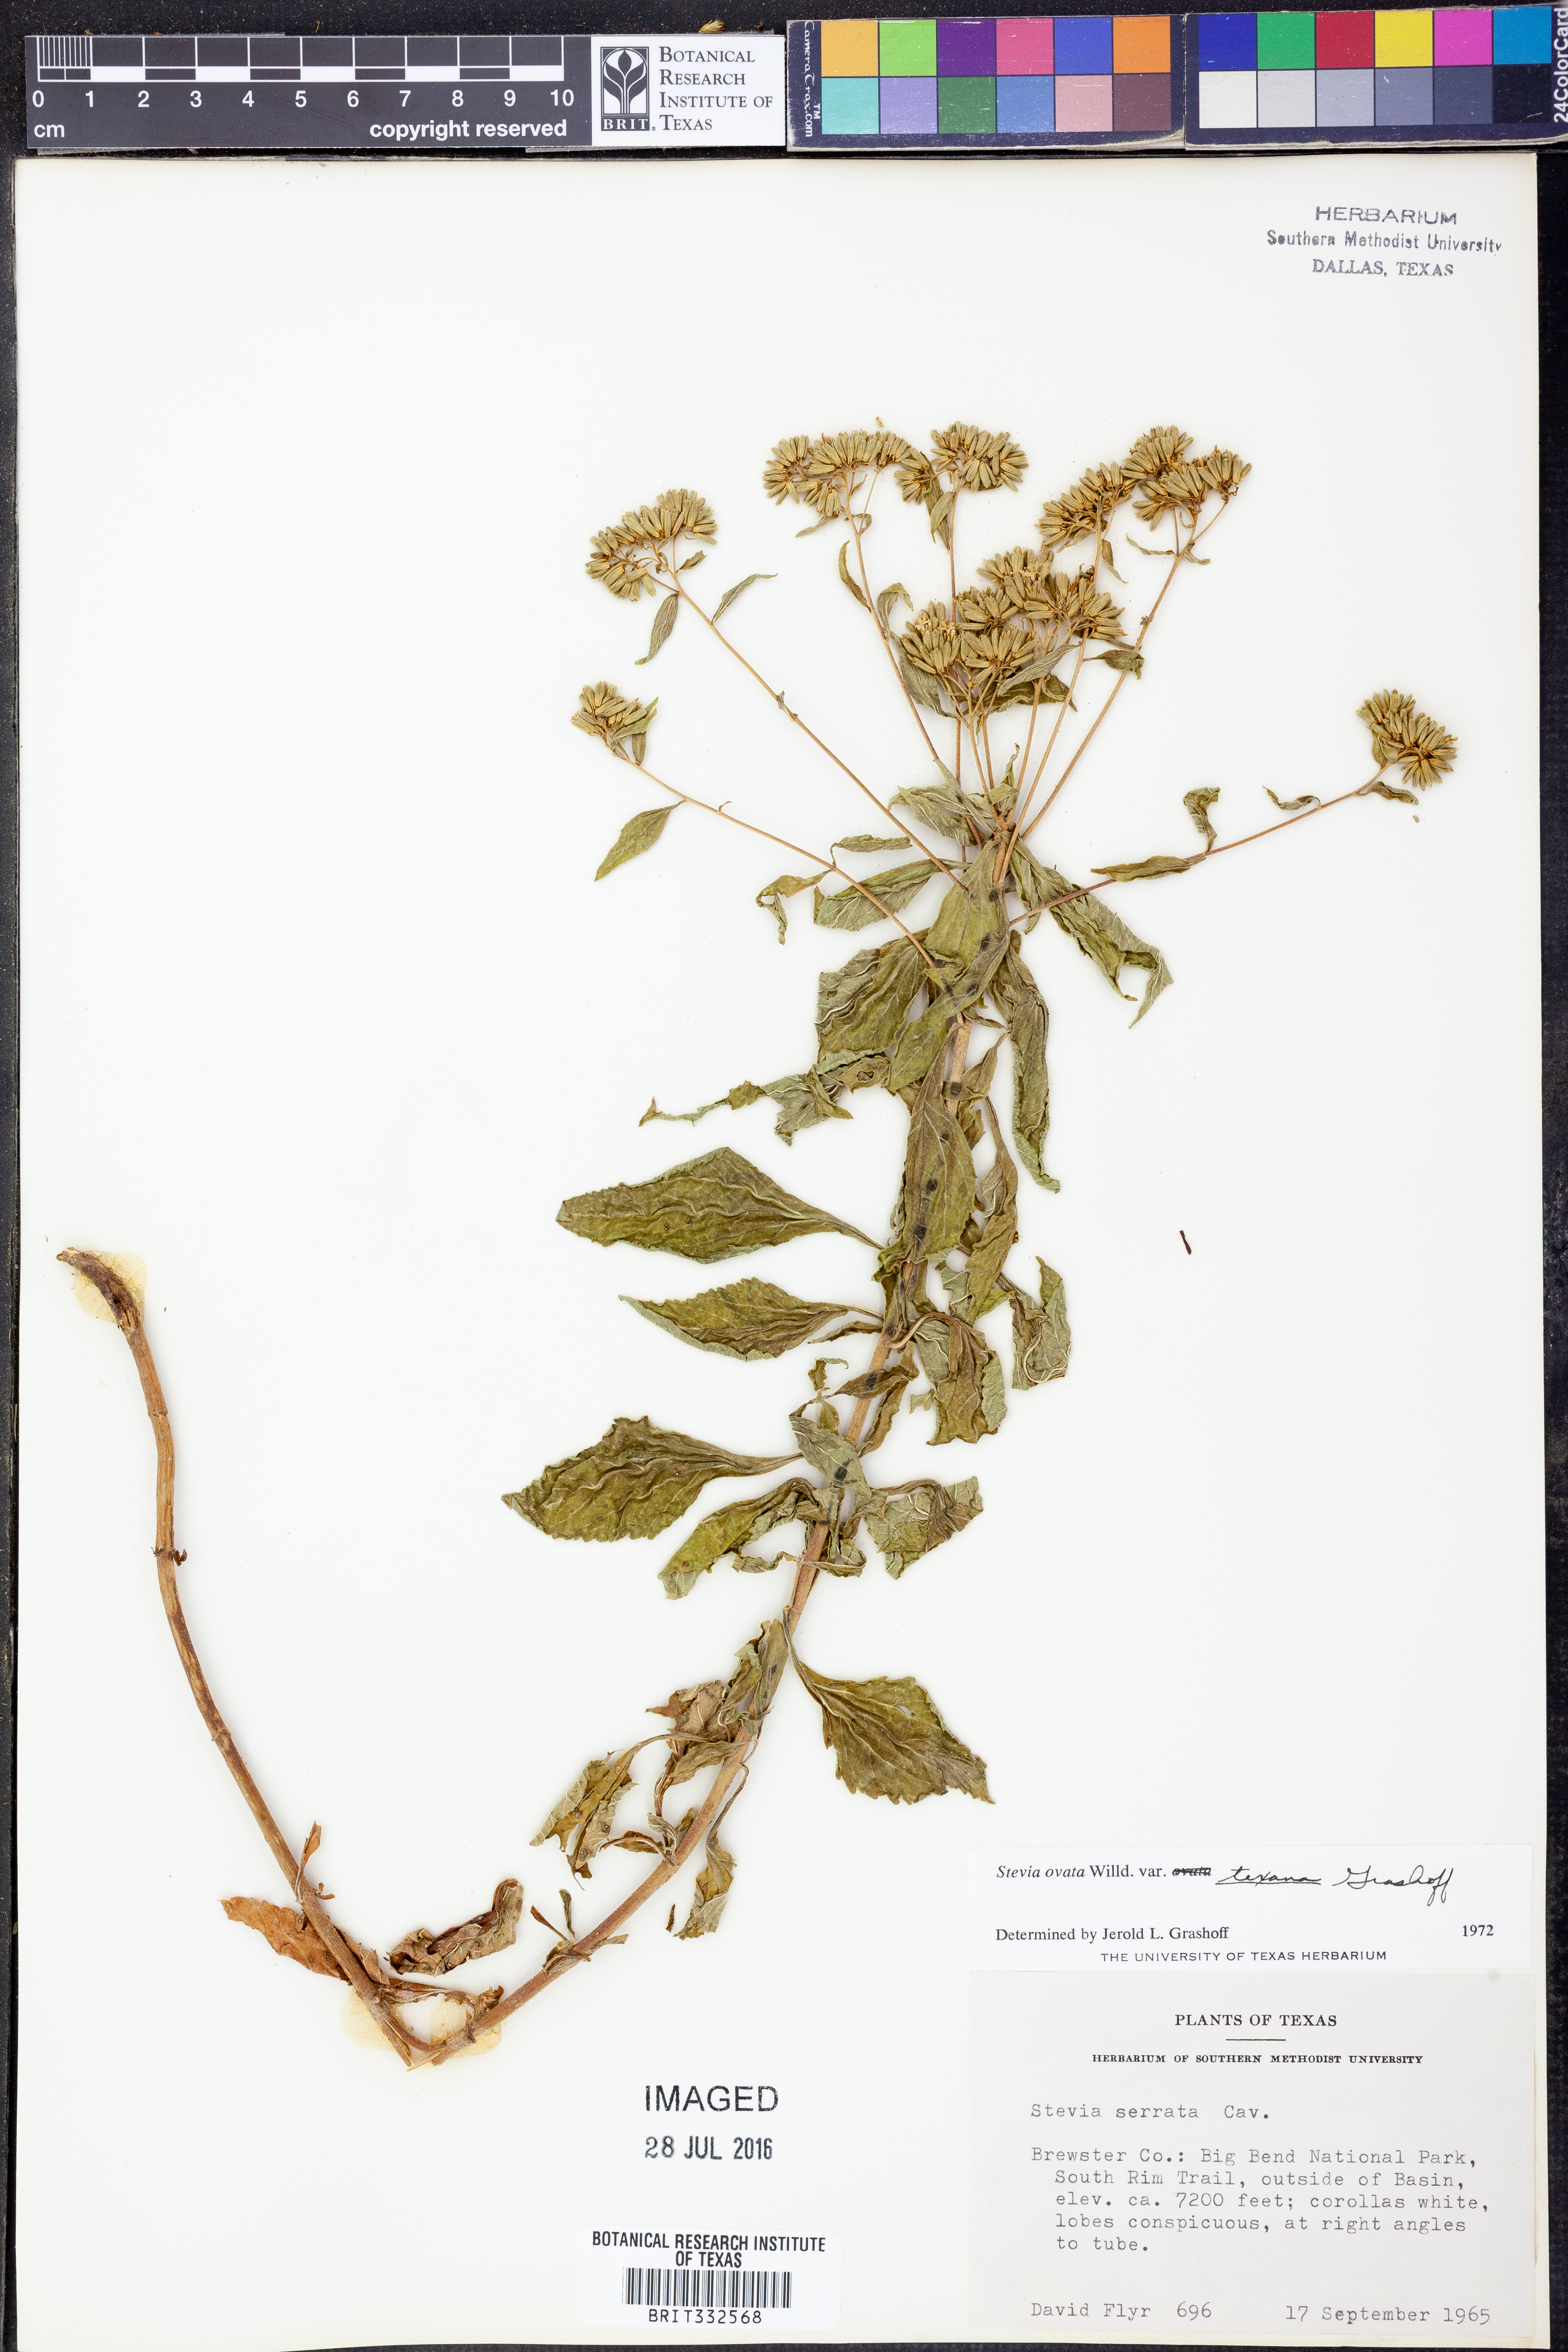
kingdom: Plantae
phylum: Tracheophyta
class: Magnoliopsida
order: Asterales
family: Asteraceae
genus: Stevia
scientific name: Stevia ovata
